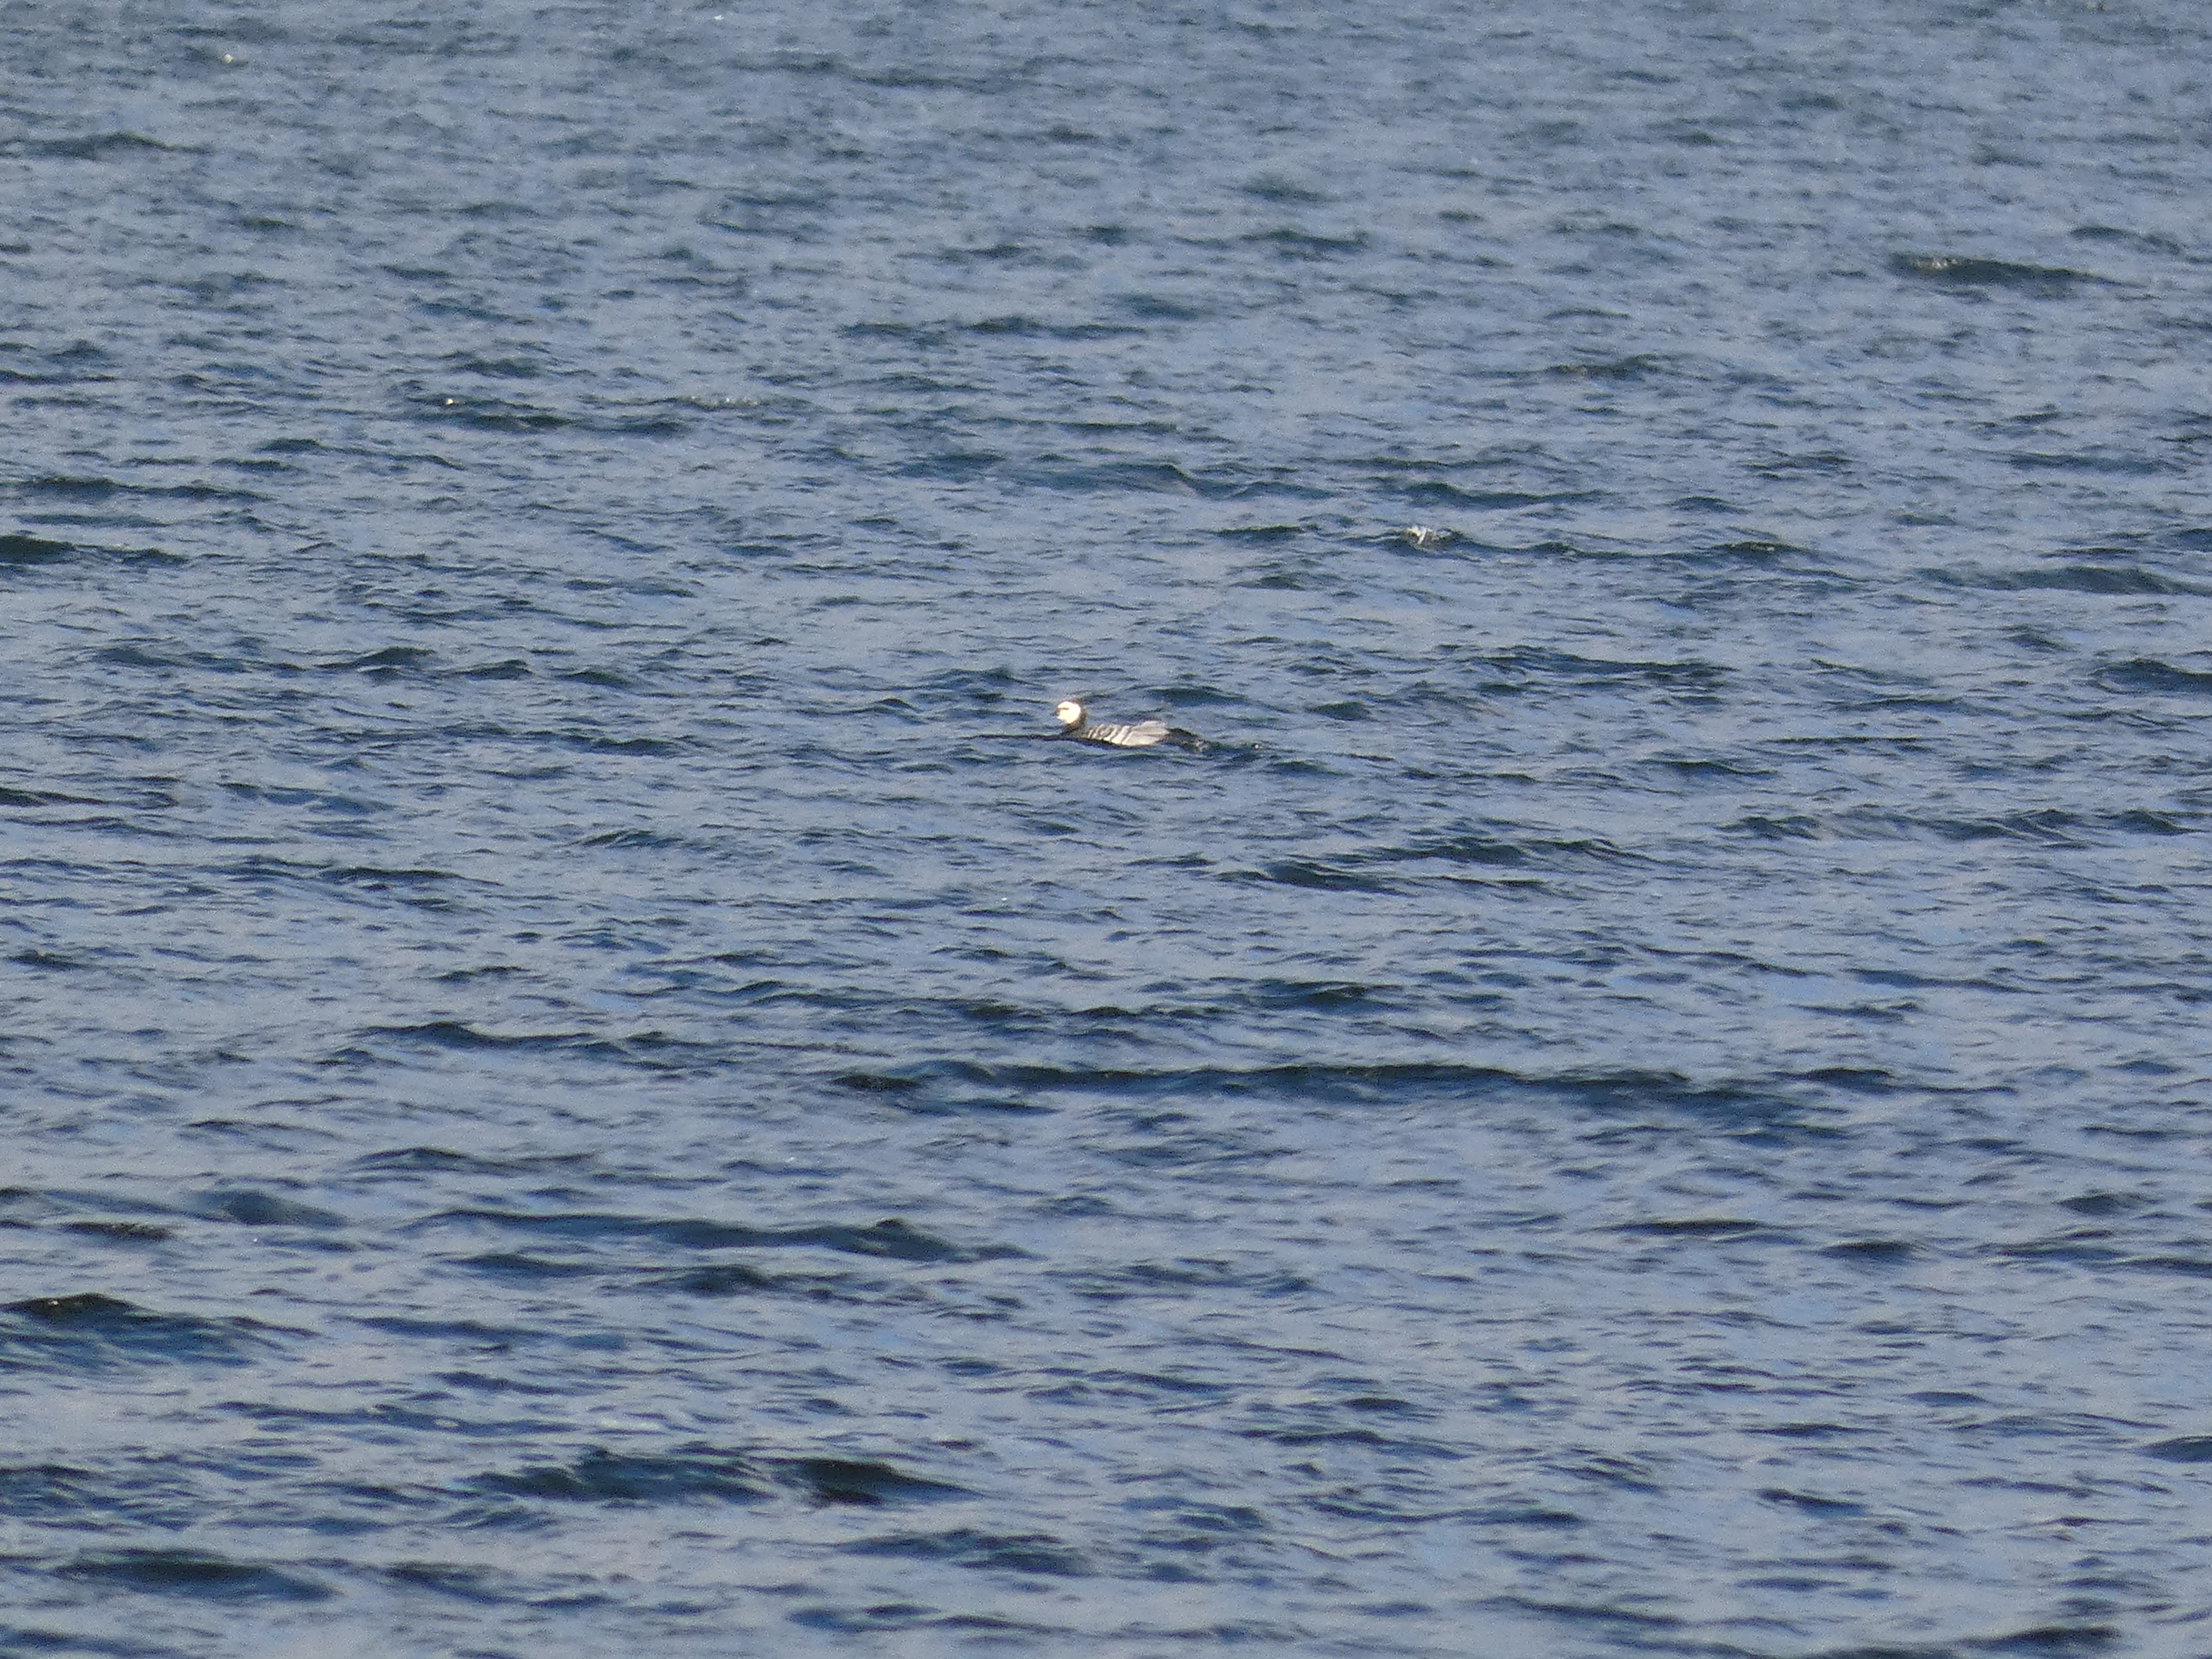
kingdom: Animalia
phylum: Chordata
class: Aves
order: Anseriformes
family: Anatidae
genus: Branta
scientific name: Branta leucopsis
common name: Bramgås
